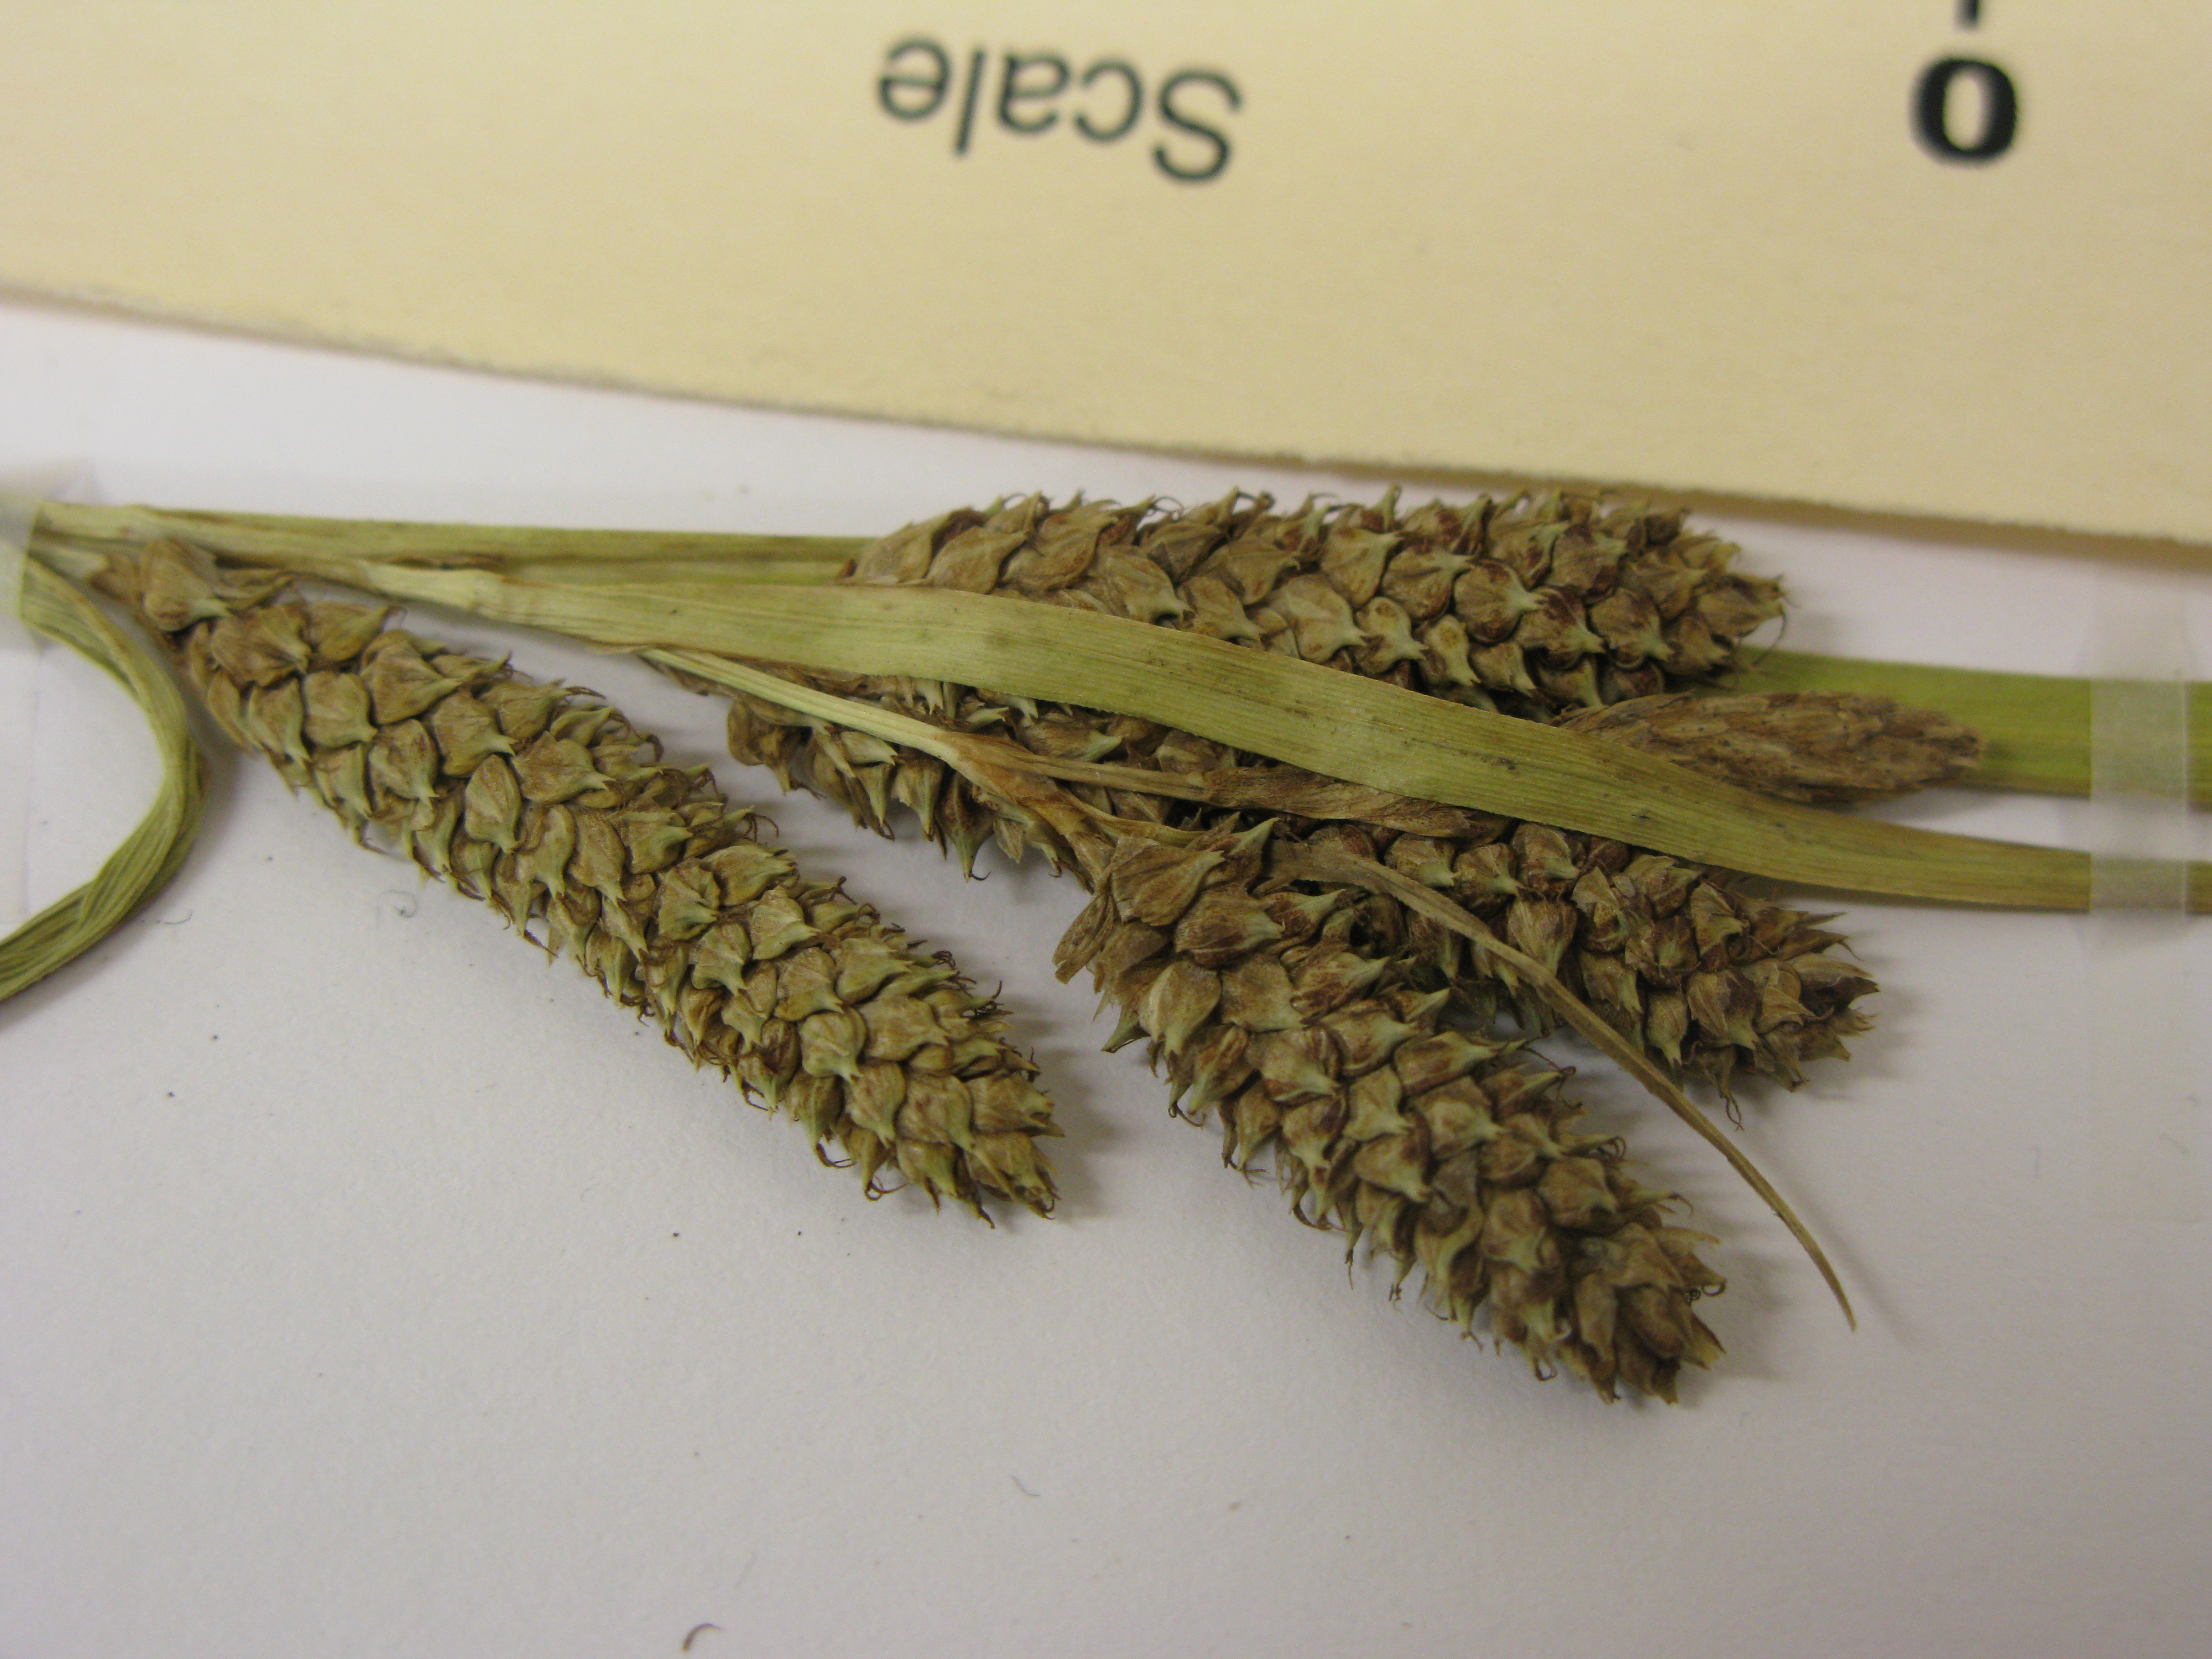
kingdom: Plantae
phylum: Tracheophyta
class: Liliopsida
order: Poales
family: Cyperaceae
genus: Carex
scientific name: Carex calcis
